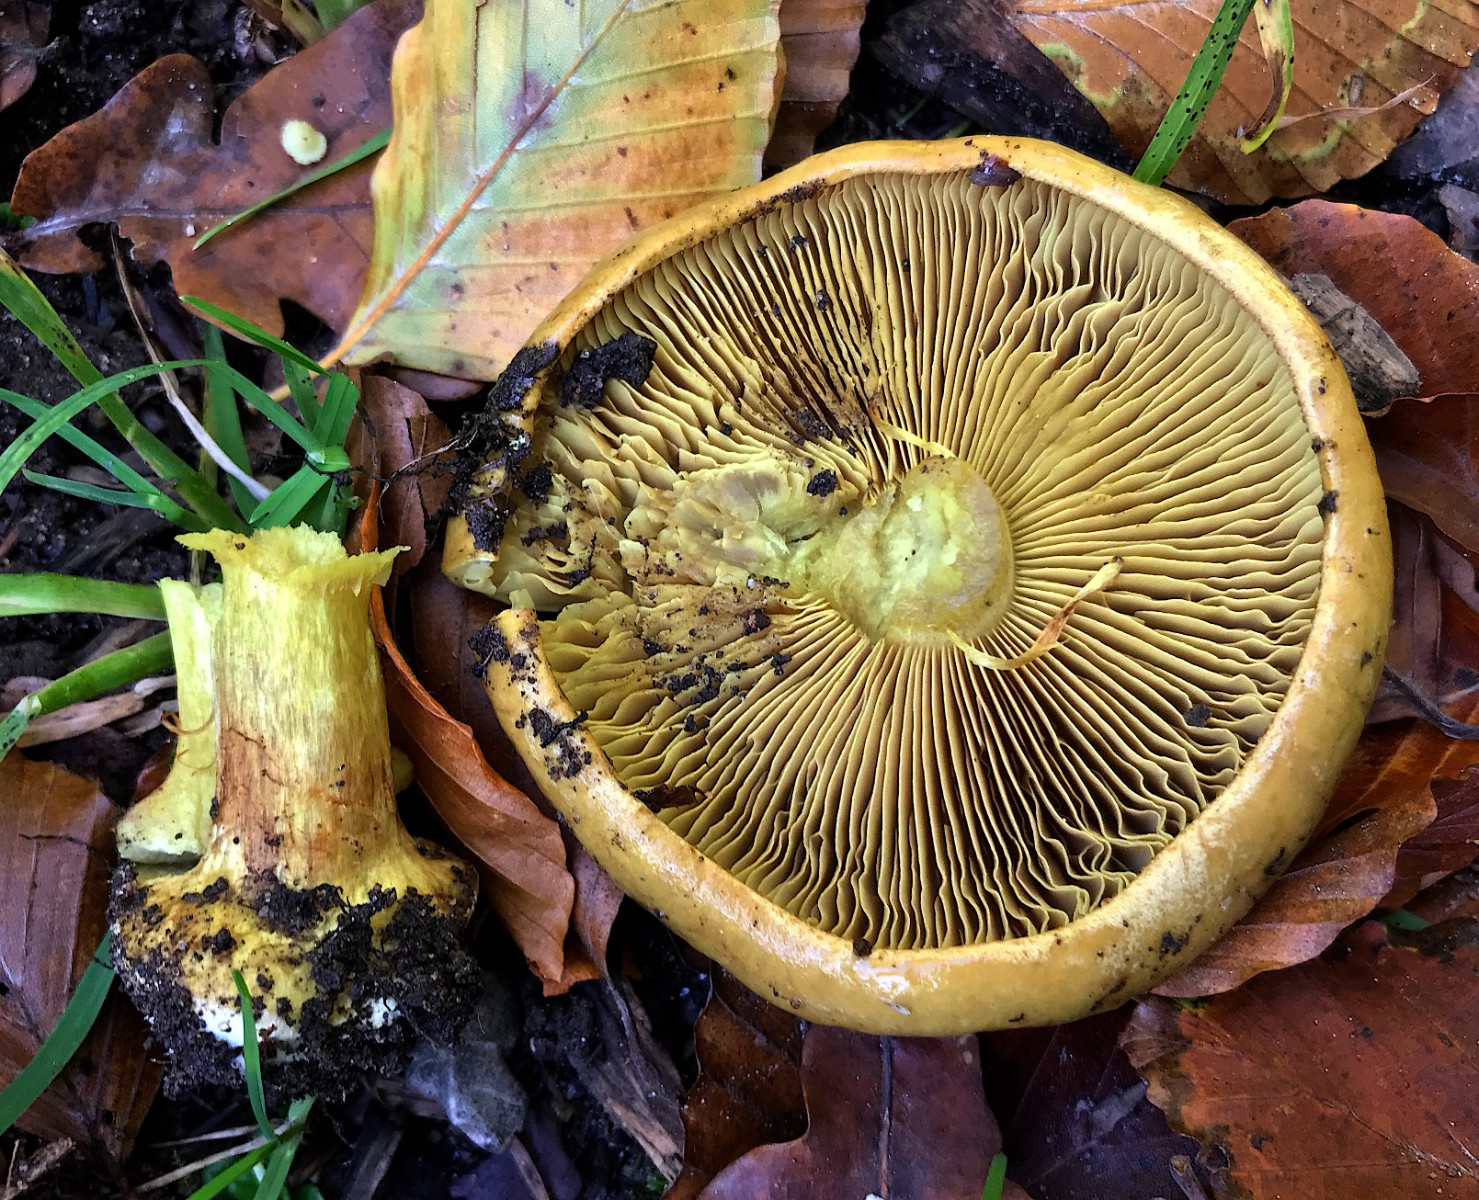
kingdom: Fungi
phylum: Basidiomycota
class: Agaricomycetes
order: Agaricales
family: Cortinariaceae
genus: Calonarius
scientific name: Calonarius citrinus
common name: citrongul slørhat
